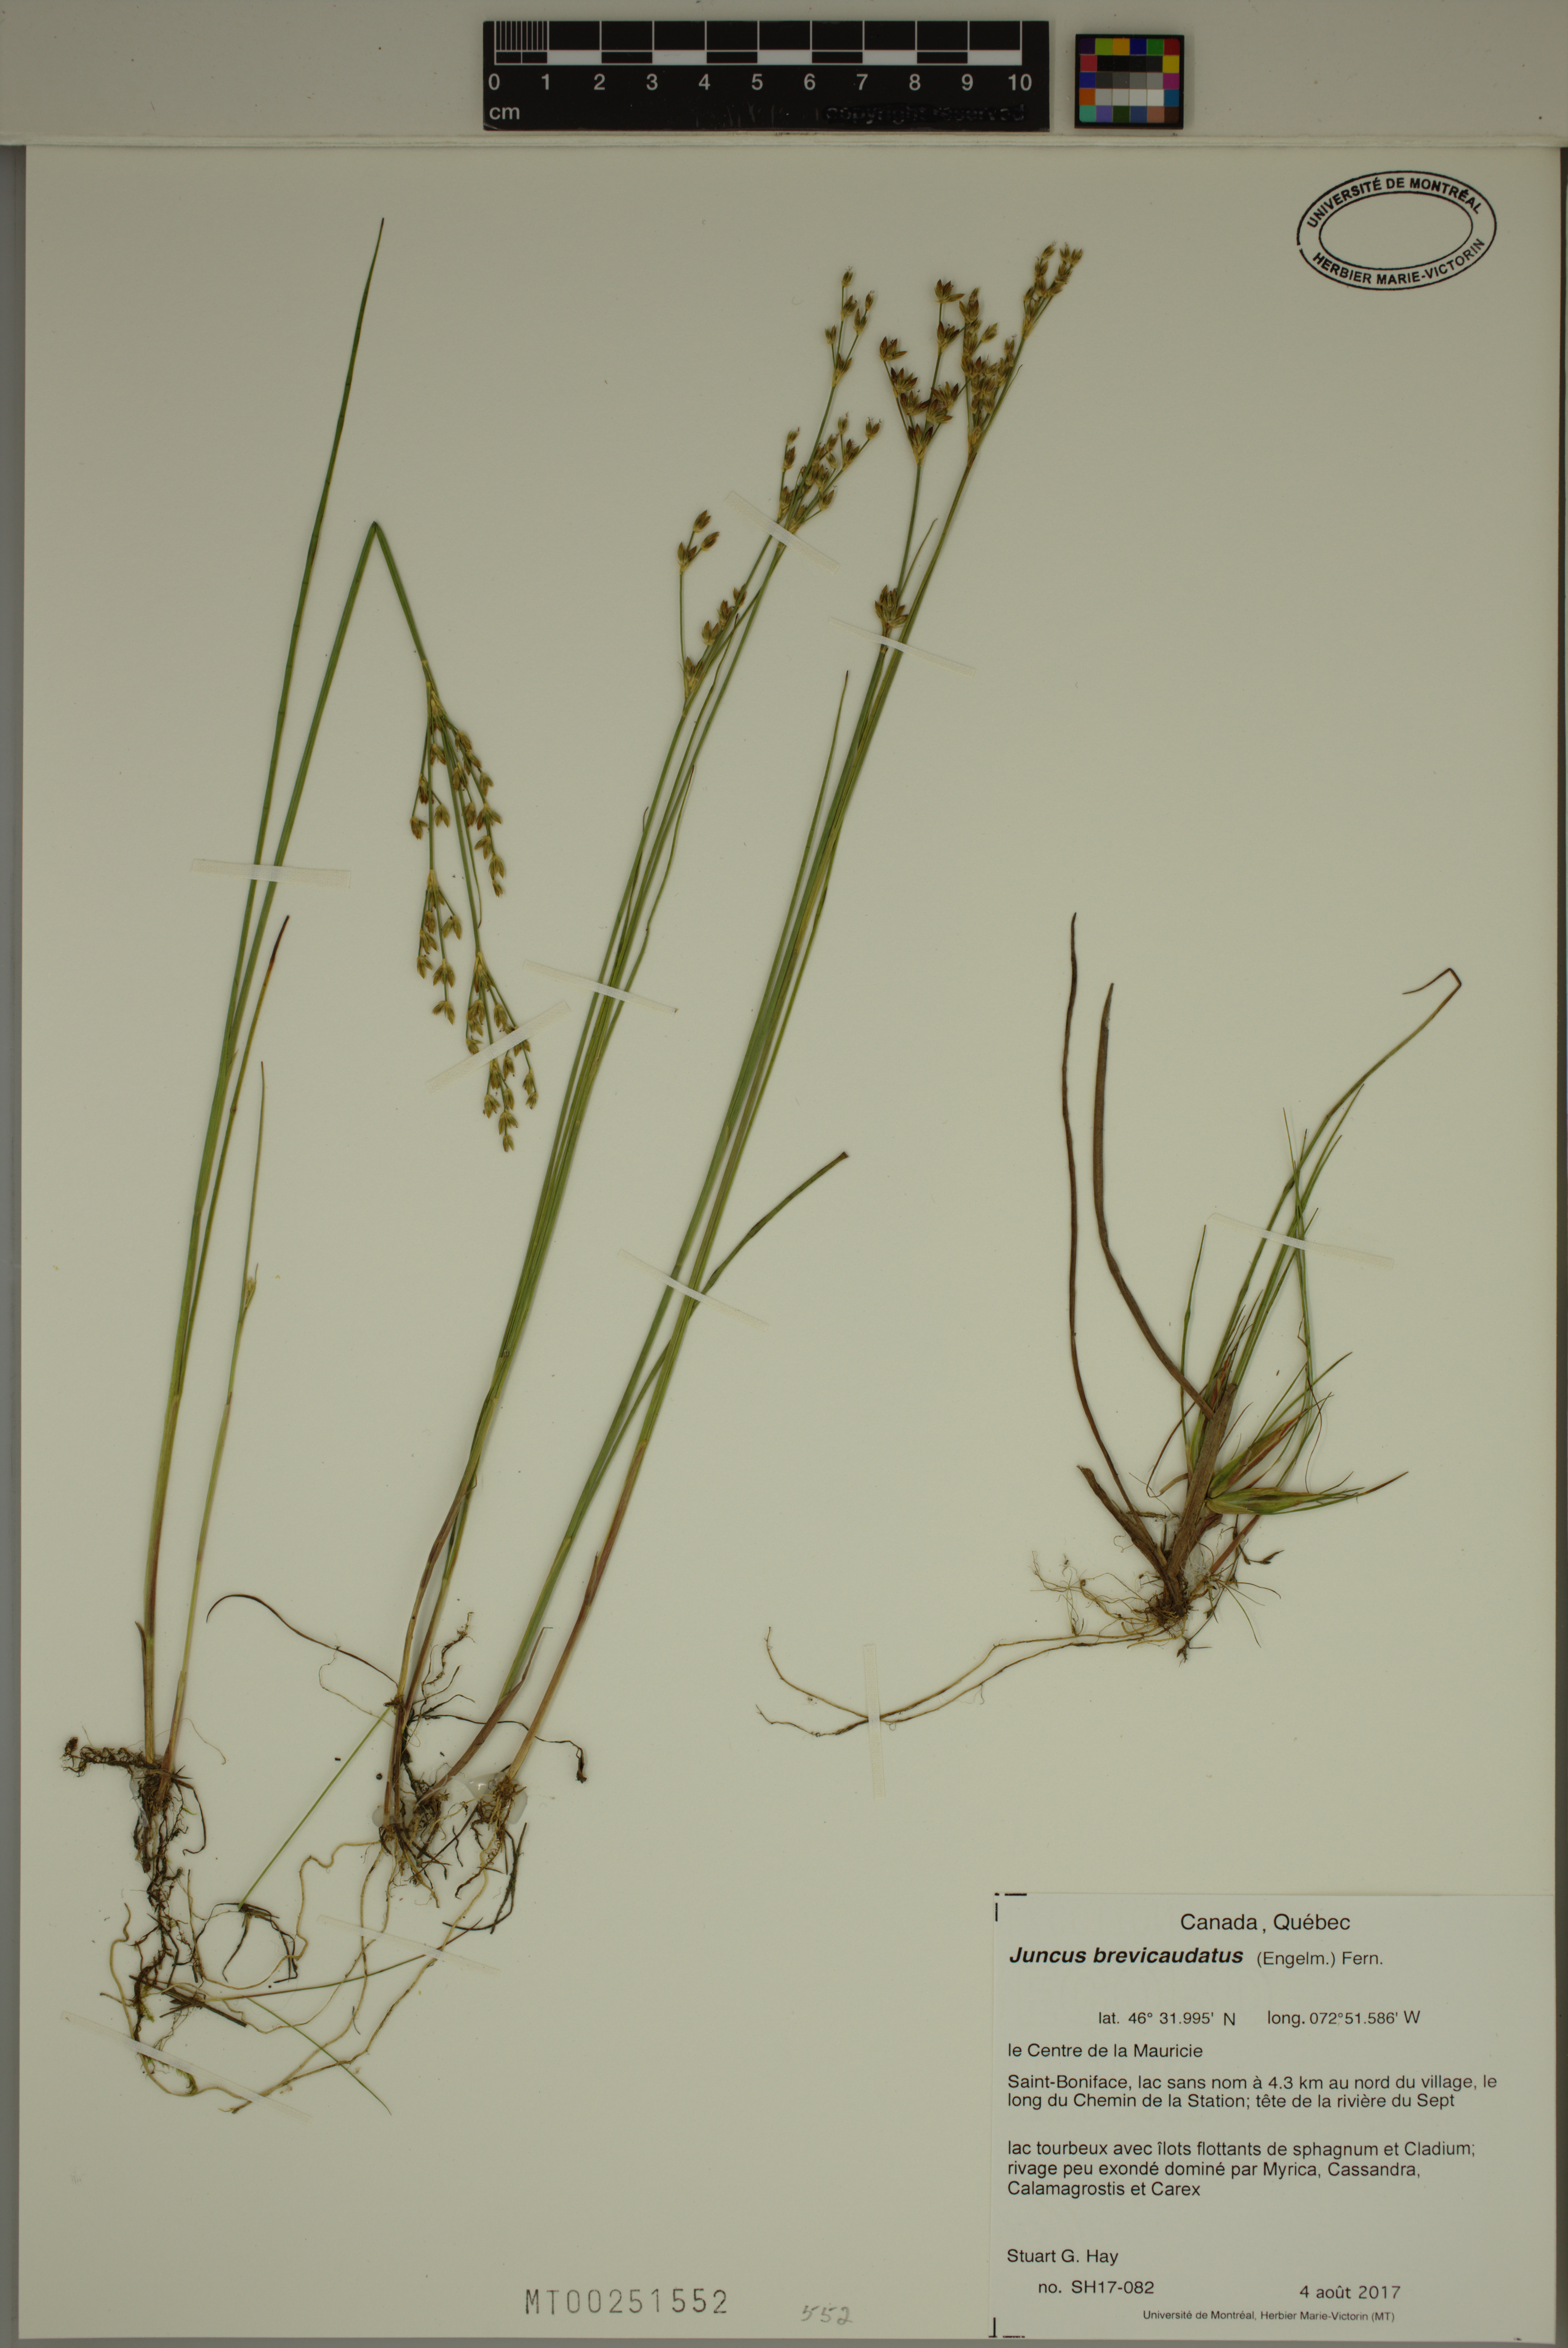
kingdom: Plantae
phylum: Tracheophyta
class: Liliopsida
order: Poales
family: Juncaceae
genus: Juncus
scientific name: Juncus brevicaudatus
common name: Narrow-panicle rush
